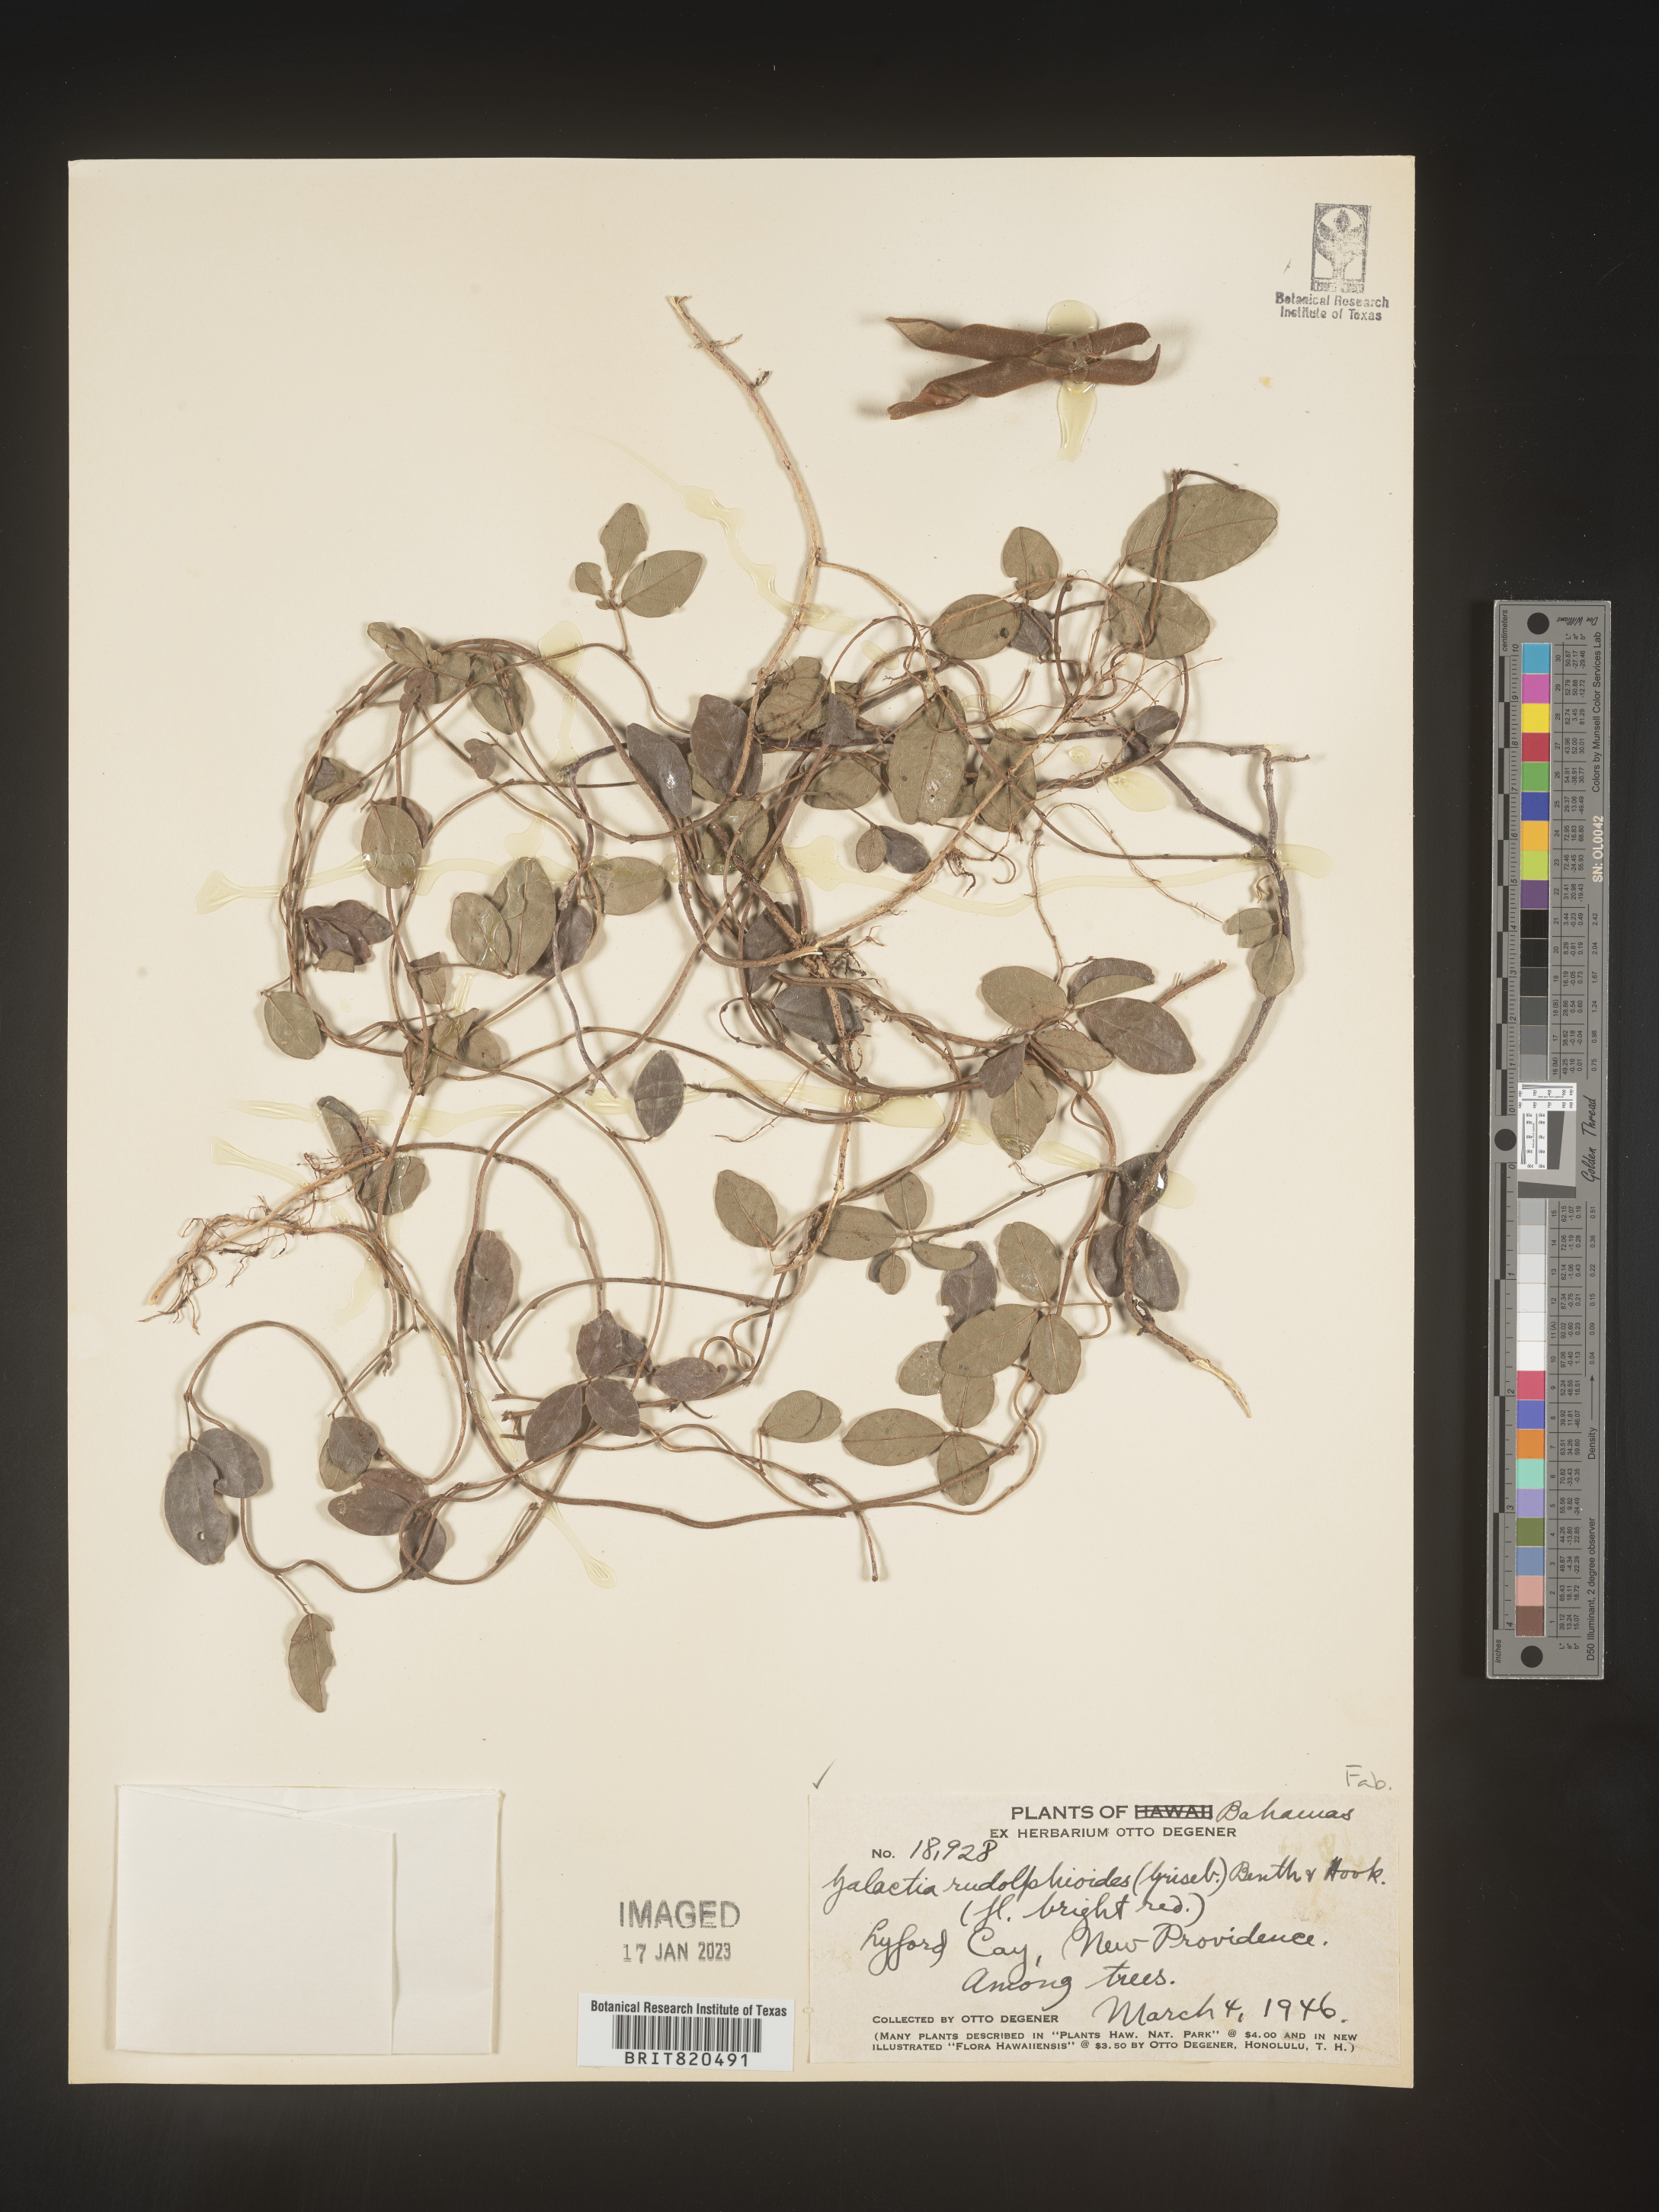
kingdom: Plantae
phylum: Tracheophyta
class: Magnoliopsida
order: Fabales
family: Fabaceae
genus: Galactia
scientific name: Galactia
